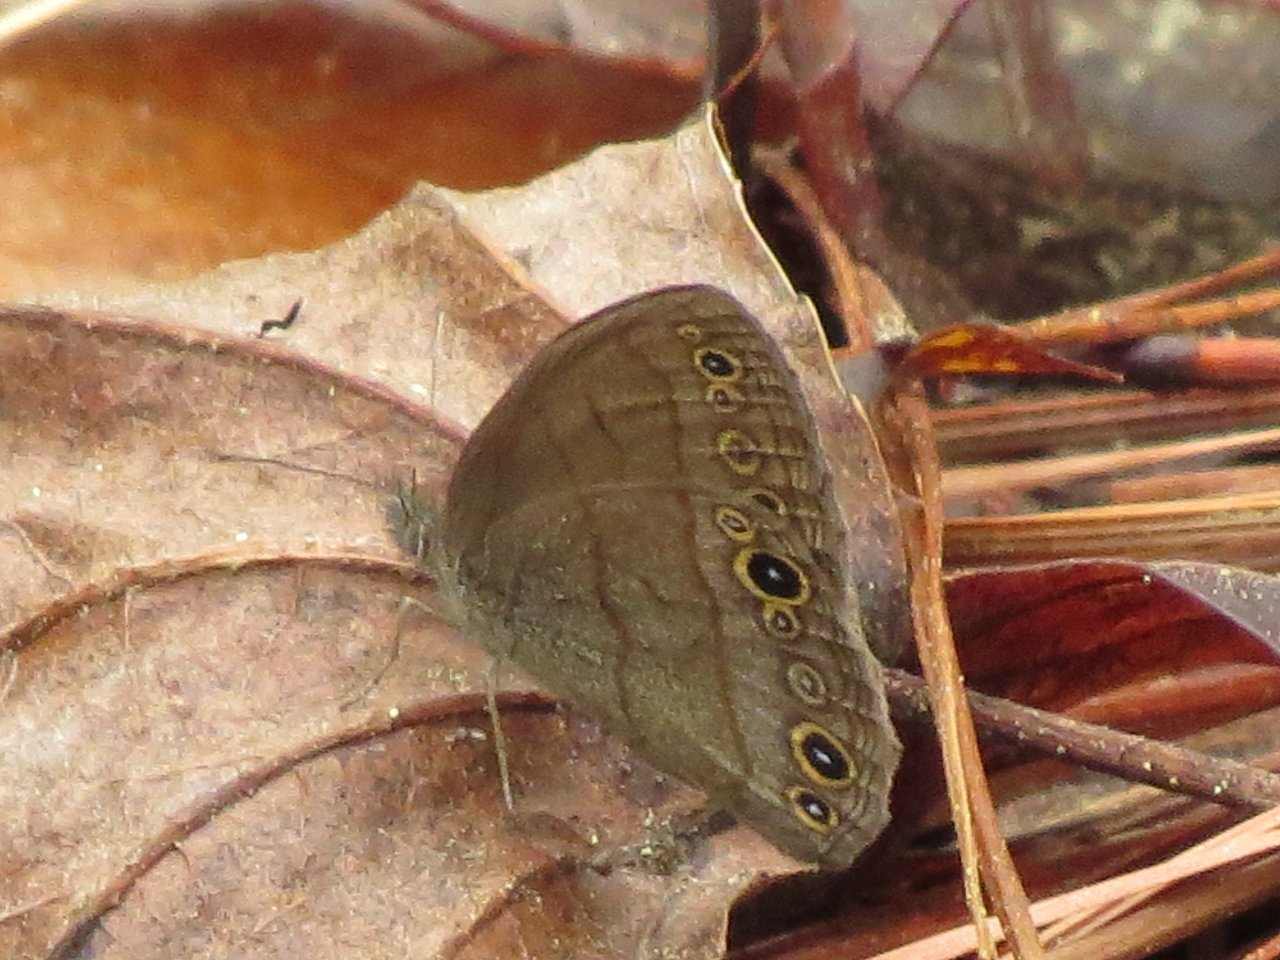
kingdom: Animalia
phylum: Arthropoda
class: Insecta
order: Lepidoptera
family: Nymphalidae
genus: Hermeuptychia
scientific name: Hermeuptychia hermes
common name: Carolina Satyr
